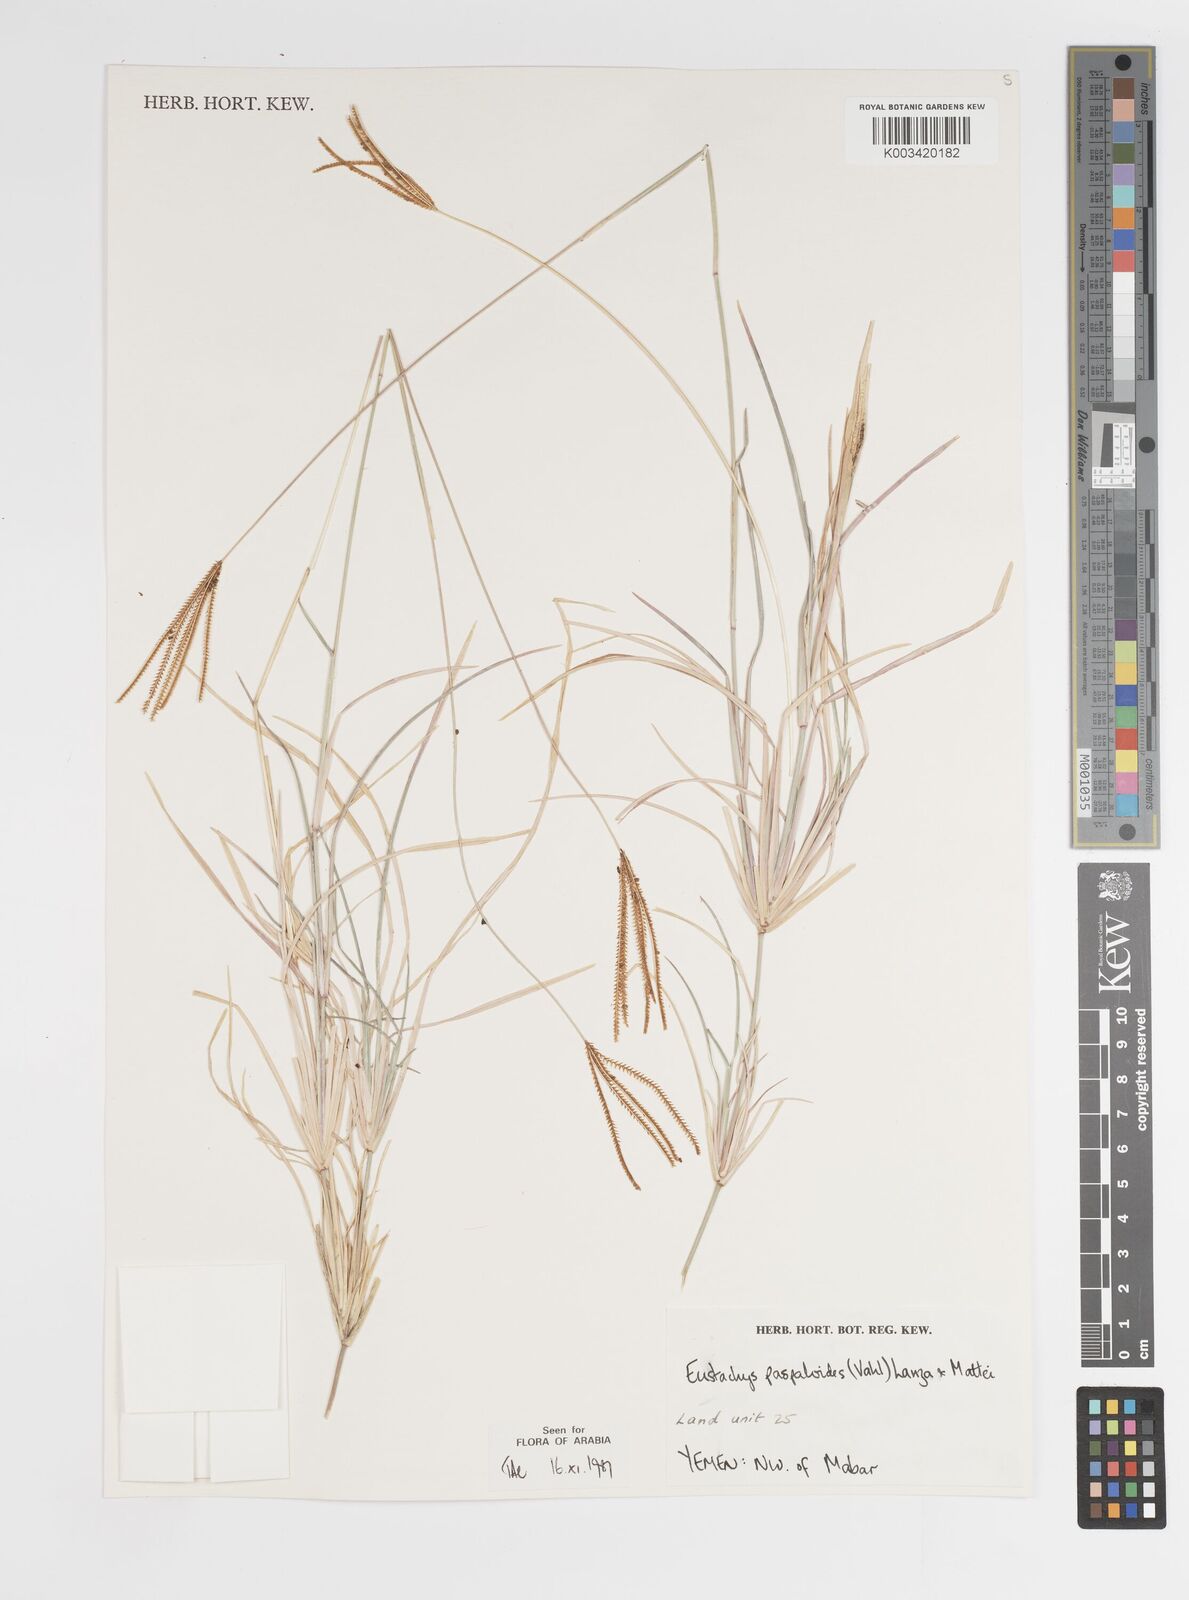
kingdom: Plantae
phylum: Tracheophyta
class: Liliopsida
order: Poales
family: Poaceae
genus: Eustachys
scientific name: Eustachys paspaloides
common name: Caribbean fingergrass
